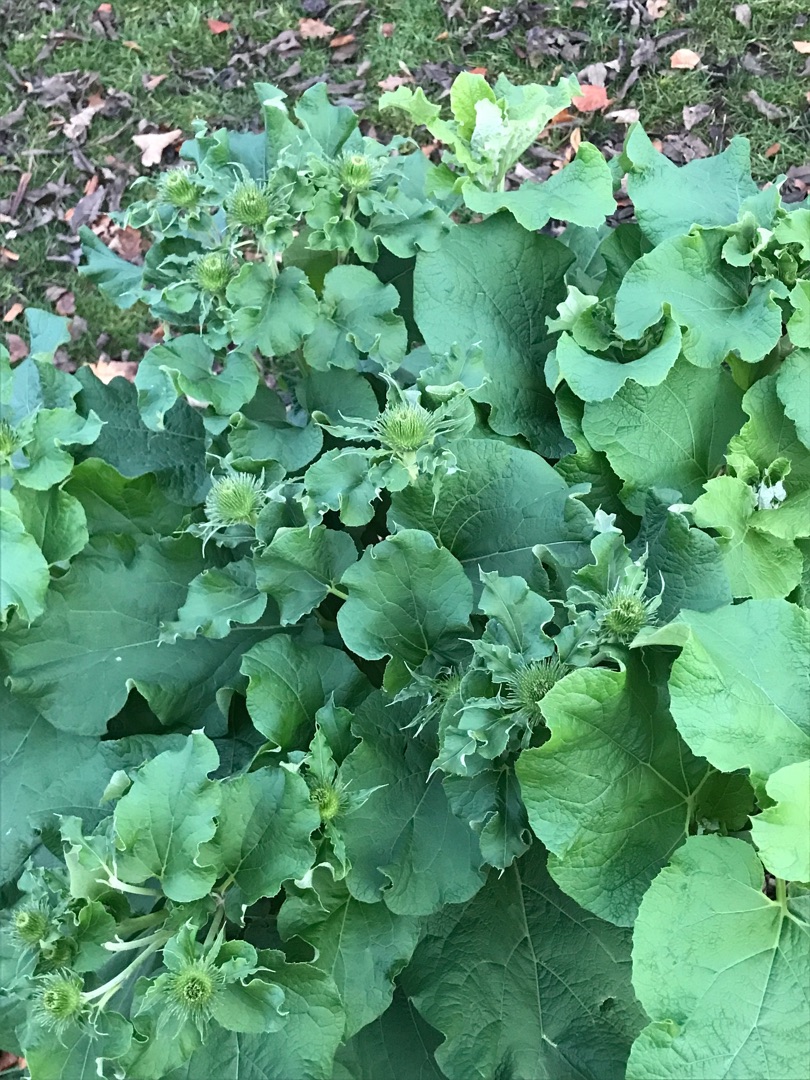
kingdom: Plantae
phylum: Tracheophyta
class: Magnoliopsida
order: Asterales
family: Asteraceae
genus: Arctium
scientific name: Arctium lappa
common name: Glat burre
